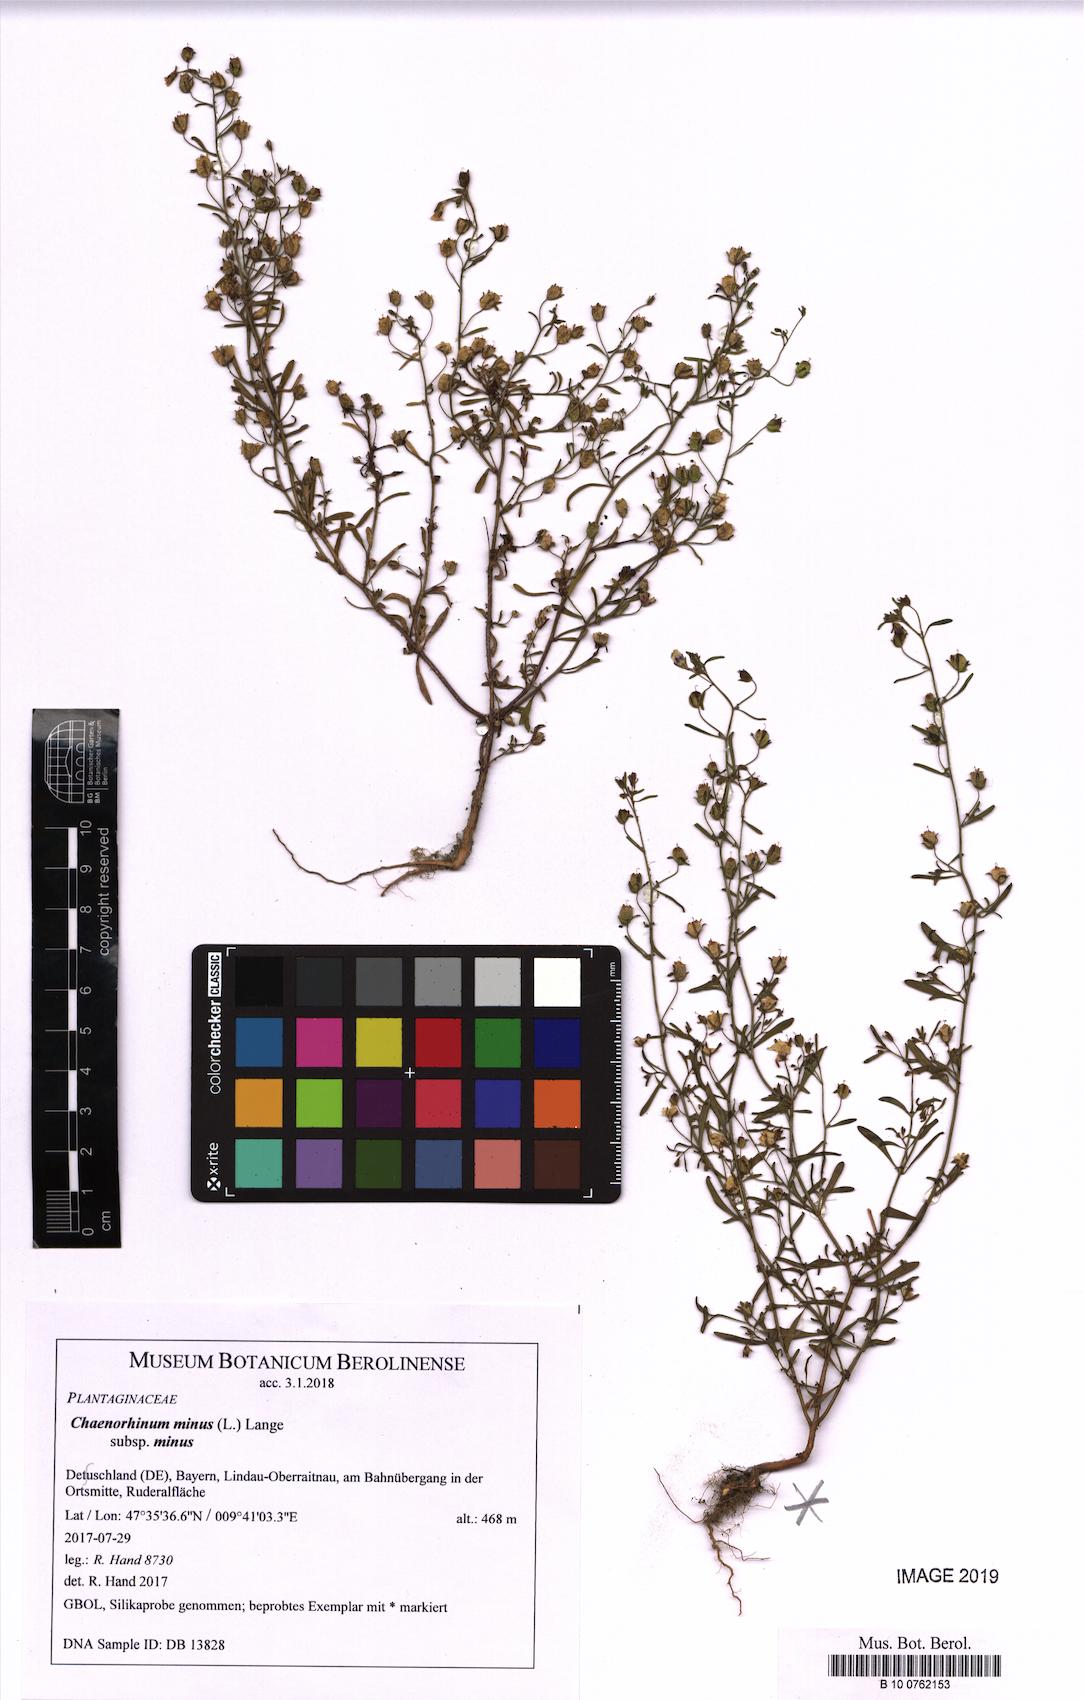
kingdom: Plantae
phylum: Tracheophyta
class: Magnoliopsida
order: Lamiales
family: Plantaginaceae
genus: Chaenorhinum
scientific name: Chaenorhinum minus
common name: Dwarf snapdragon
